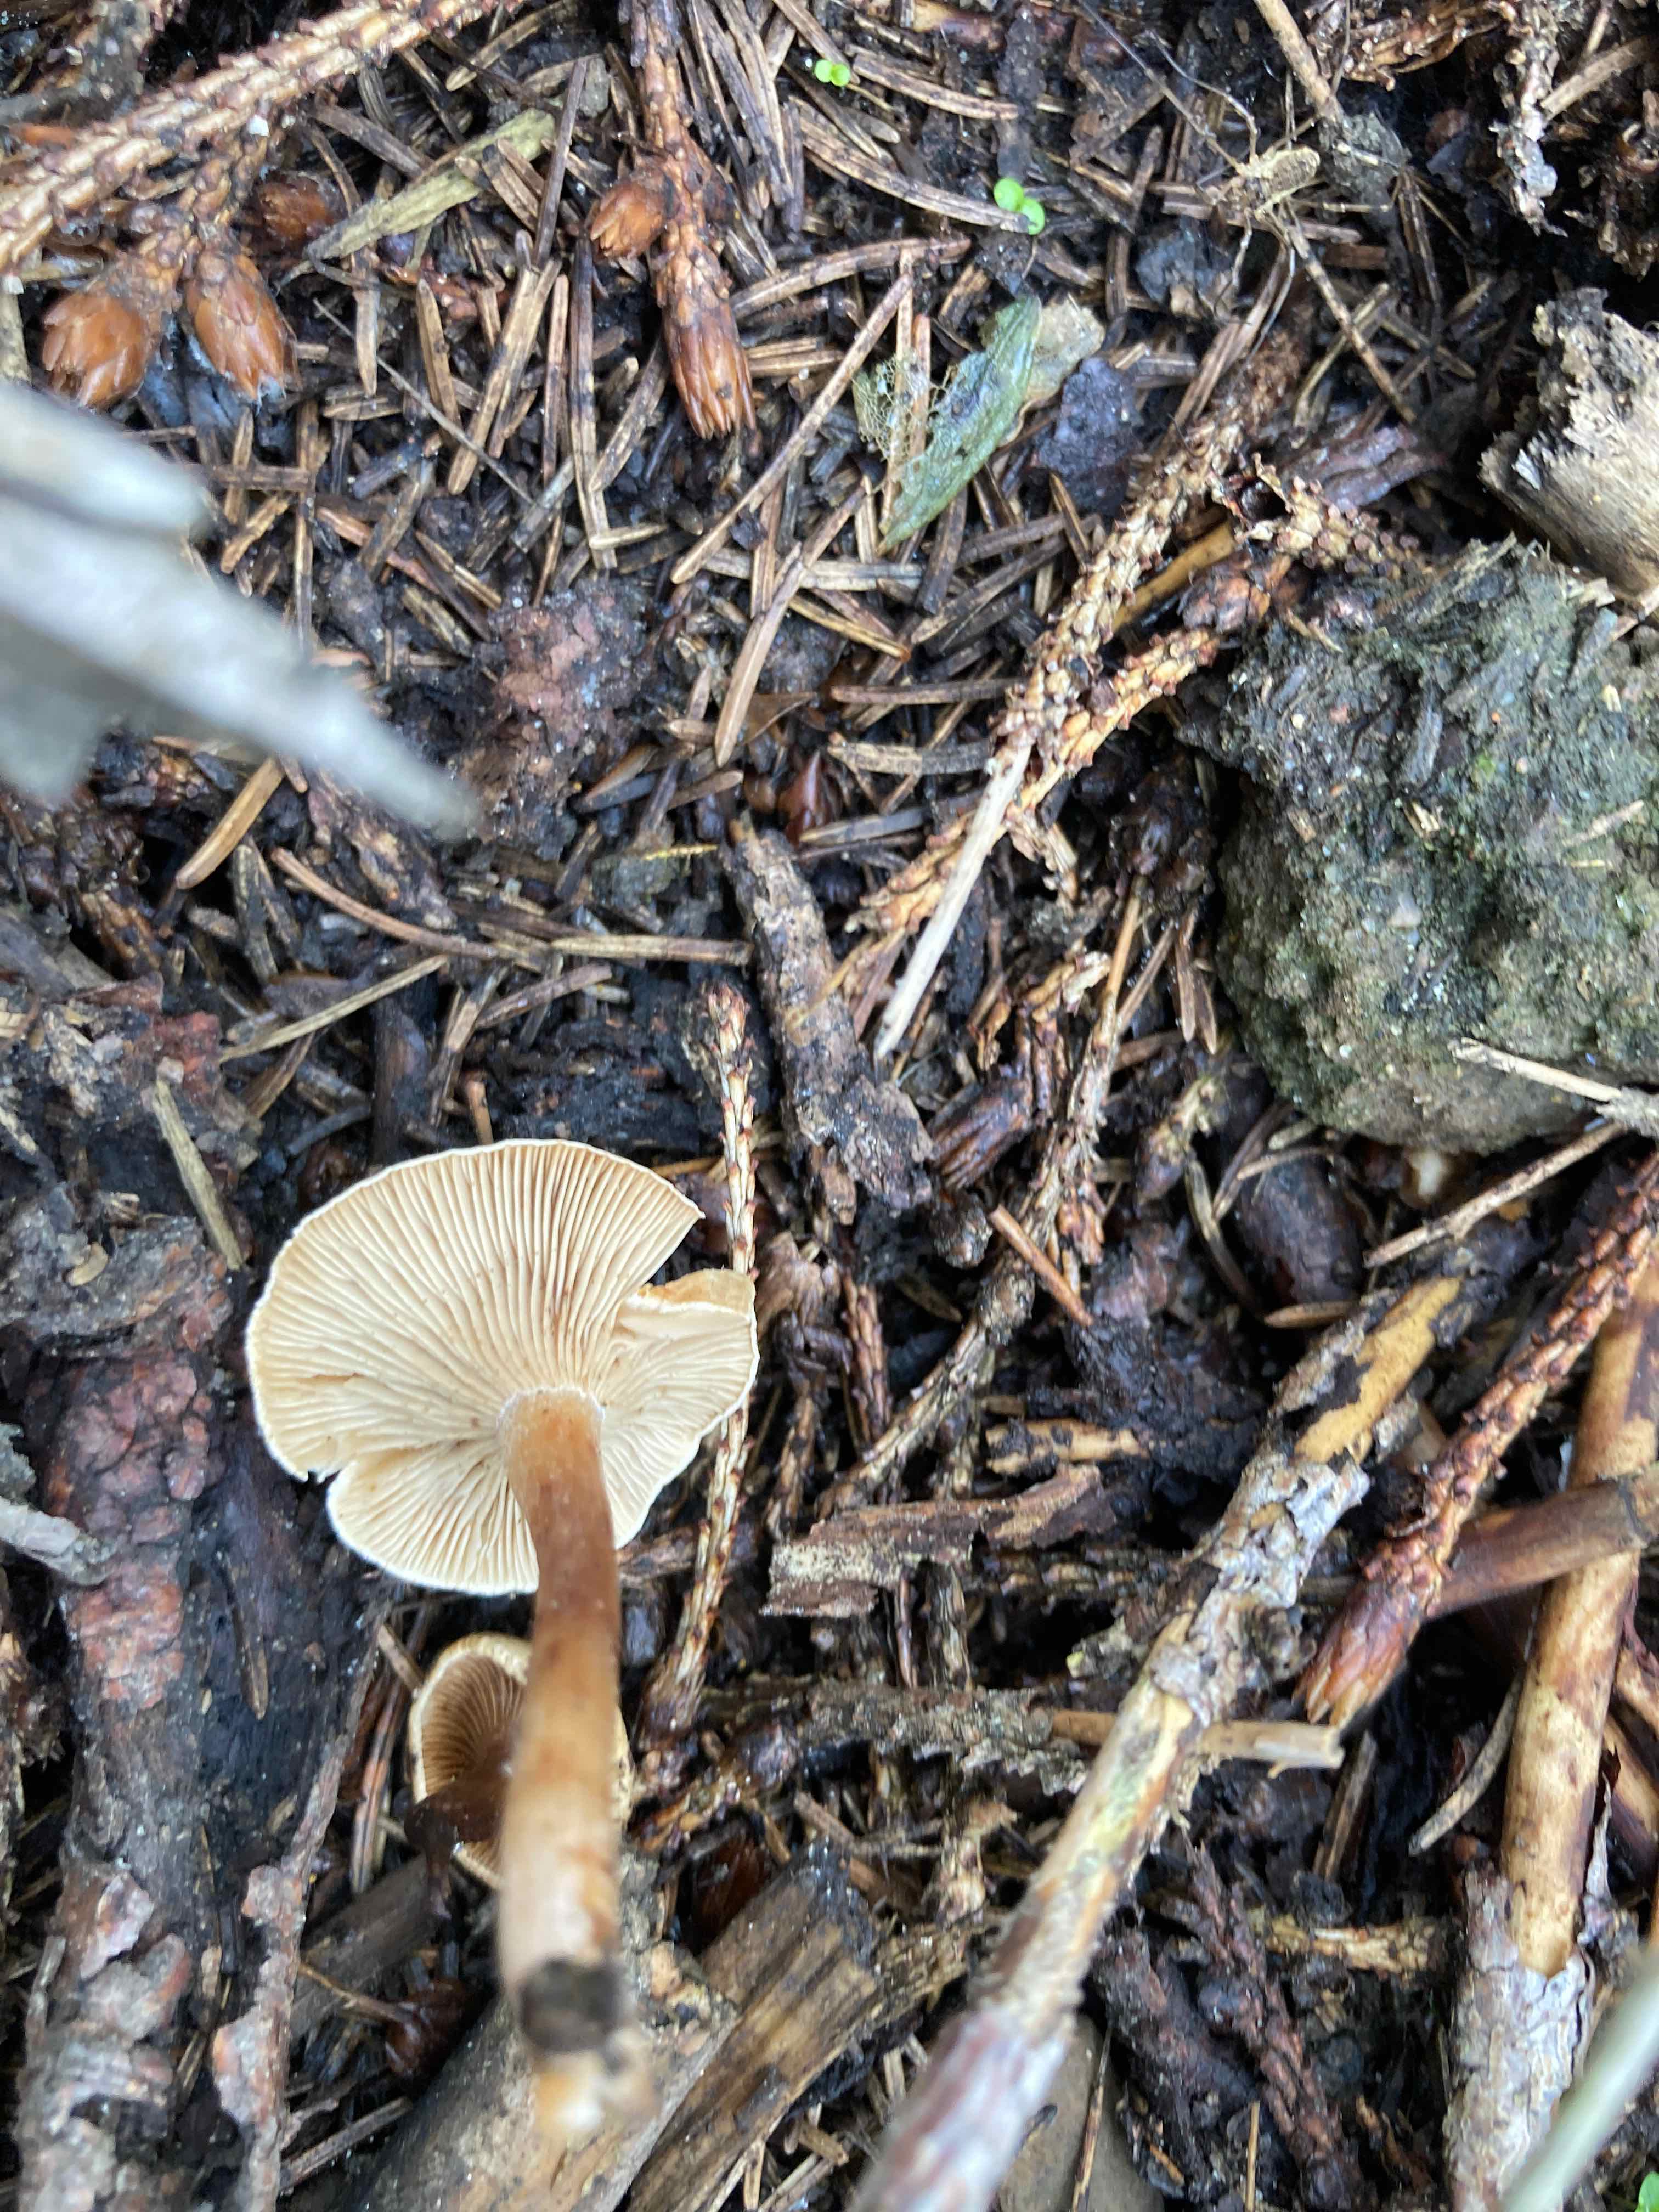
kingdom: Plantae
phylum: Bryophyta
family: Agaricomycetidae
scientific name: Agaricomycetidae
